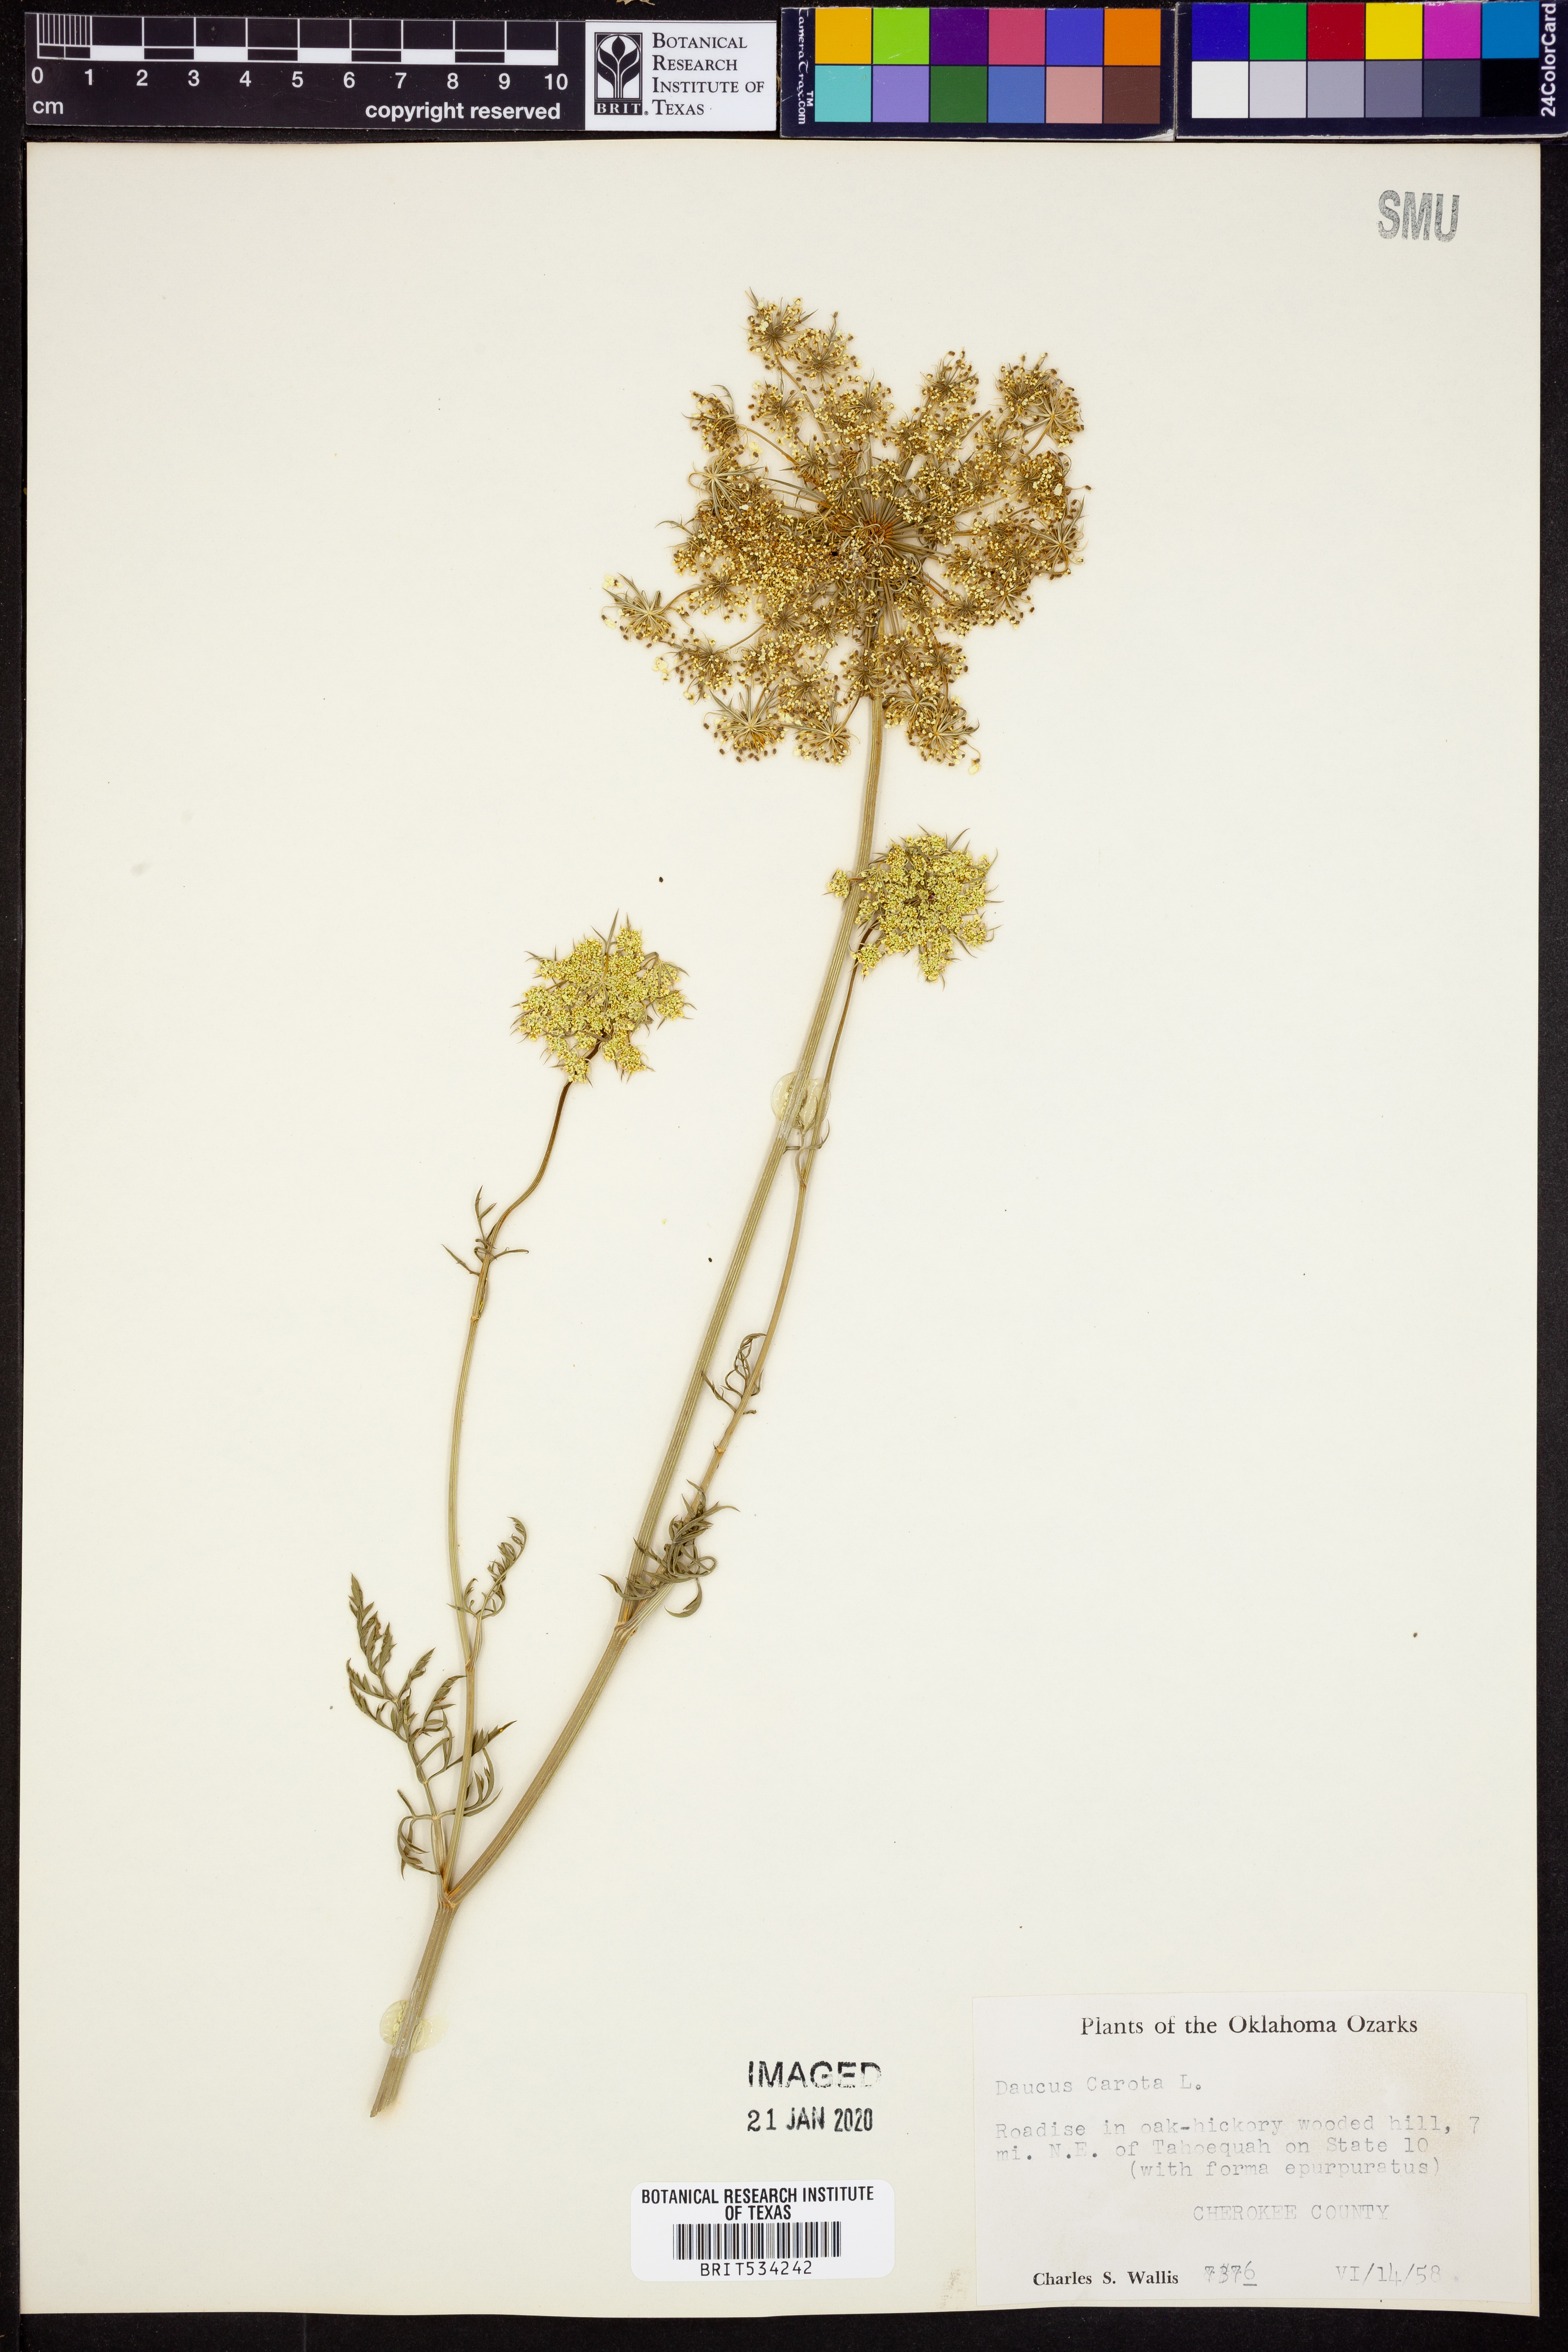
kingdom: Plantae
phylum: Tracheophyta
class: Magnoliopsida
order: Apiales
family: Apiaceae
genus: Daucus
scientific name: Daucus carota
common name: Wild carrot
